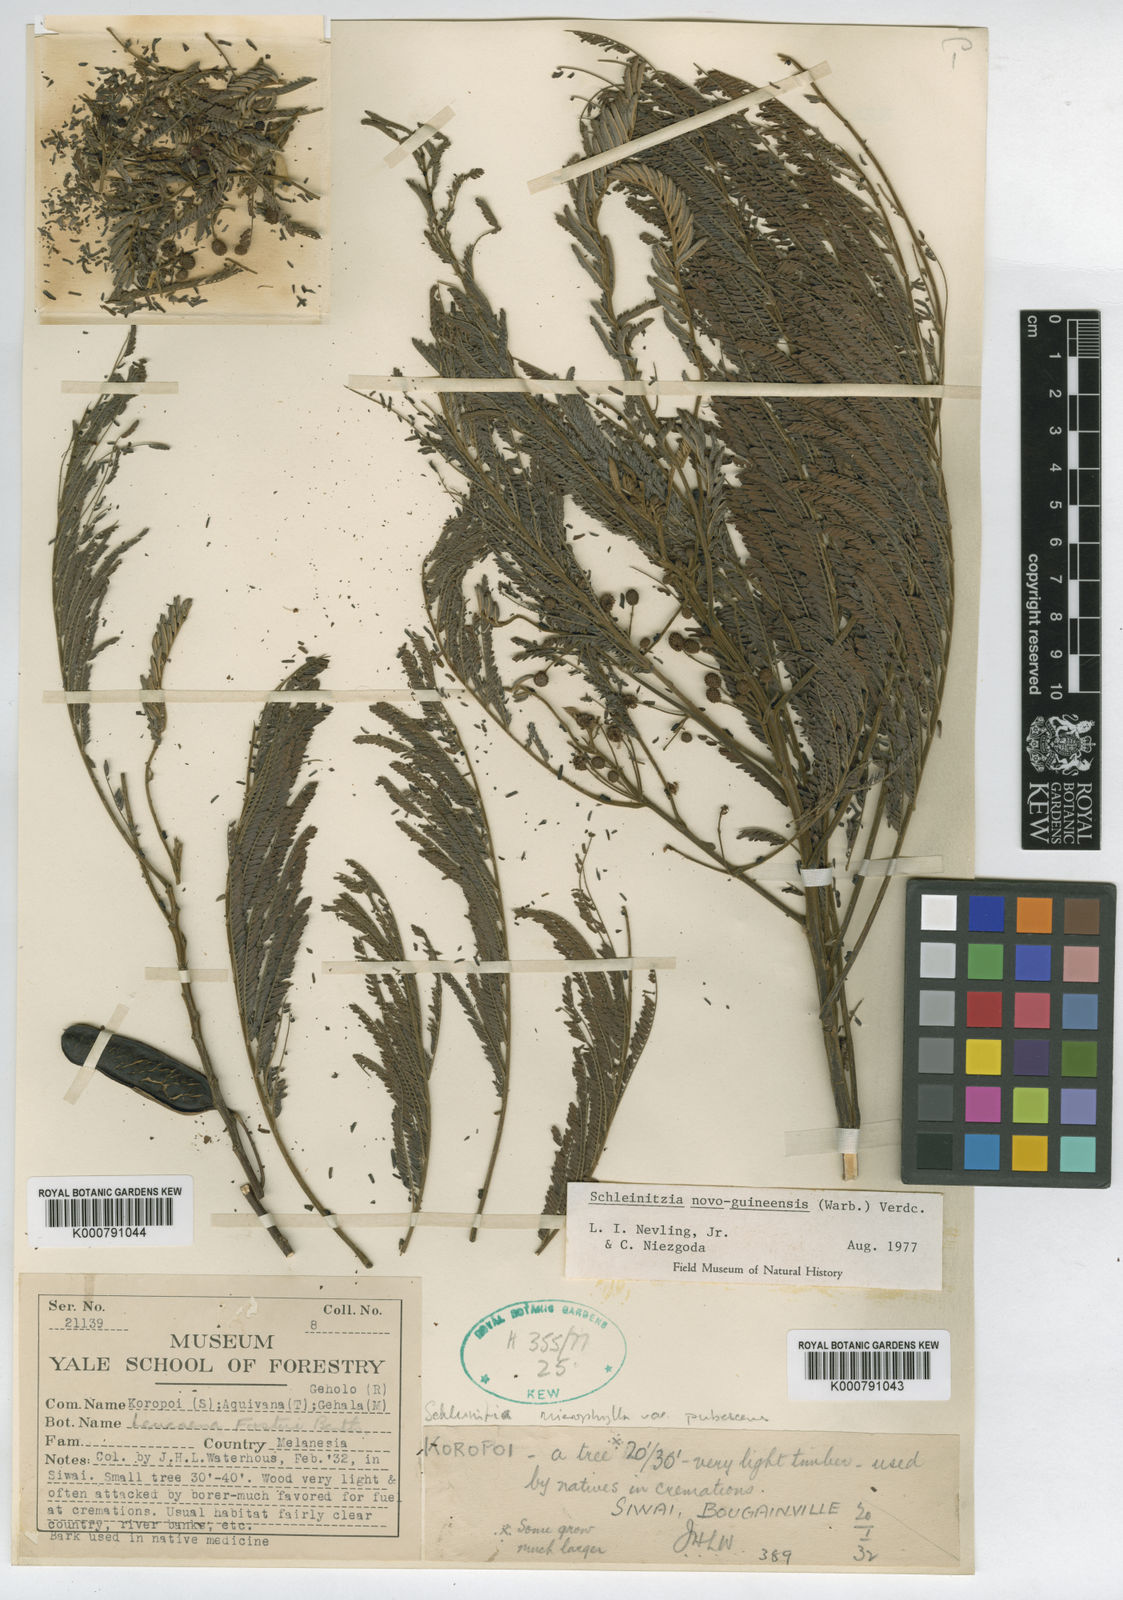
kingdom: Plantae
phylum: Tracheophyta
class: Magnoliopsida
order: Fabales
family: Fabaceae
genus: Schleinitzia
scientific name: Schleinitzia novoguineensis
